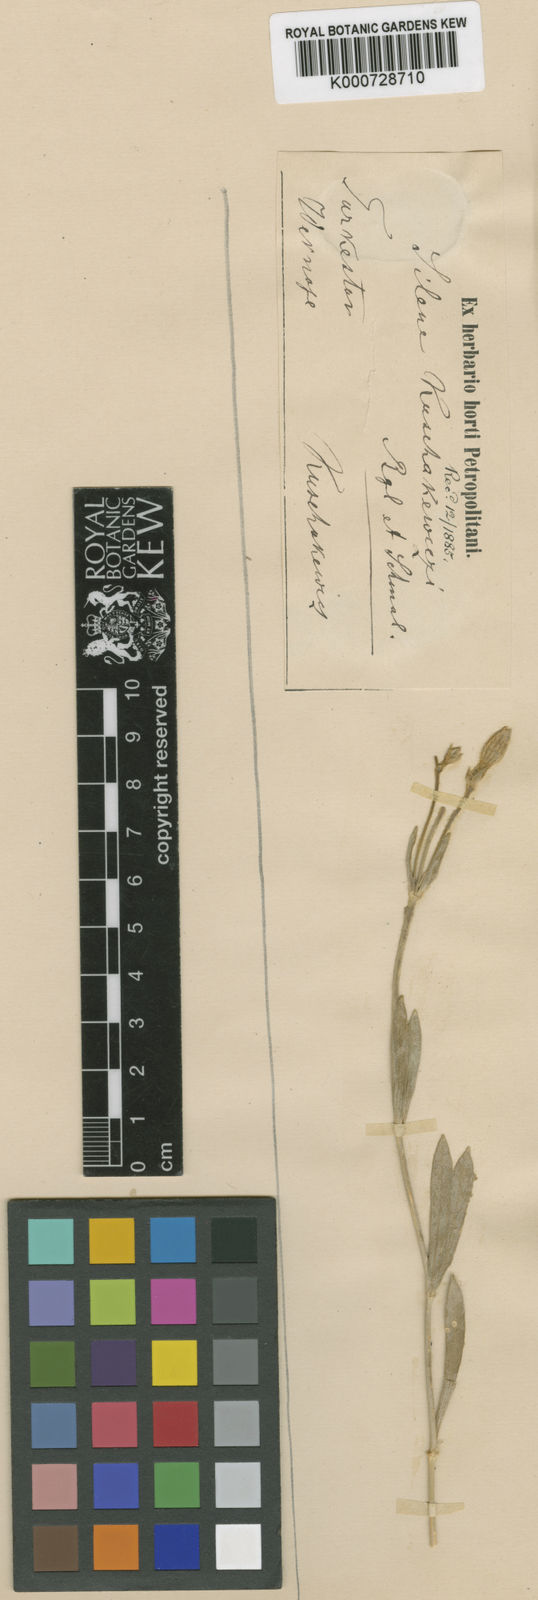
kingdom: Plantae
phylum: Tracheophyta
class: Magnoliopsida
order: Caryophyllales
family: Caryophyllaceae
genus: Silene
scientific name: Silene kuschakewiczii
